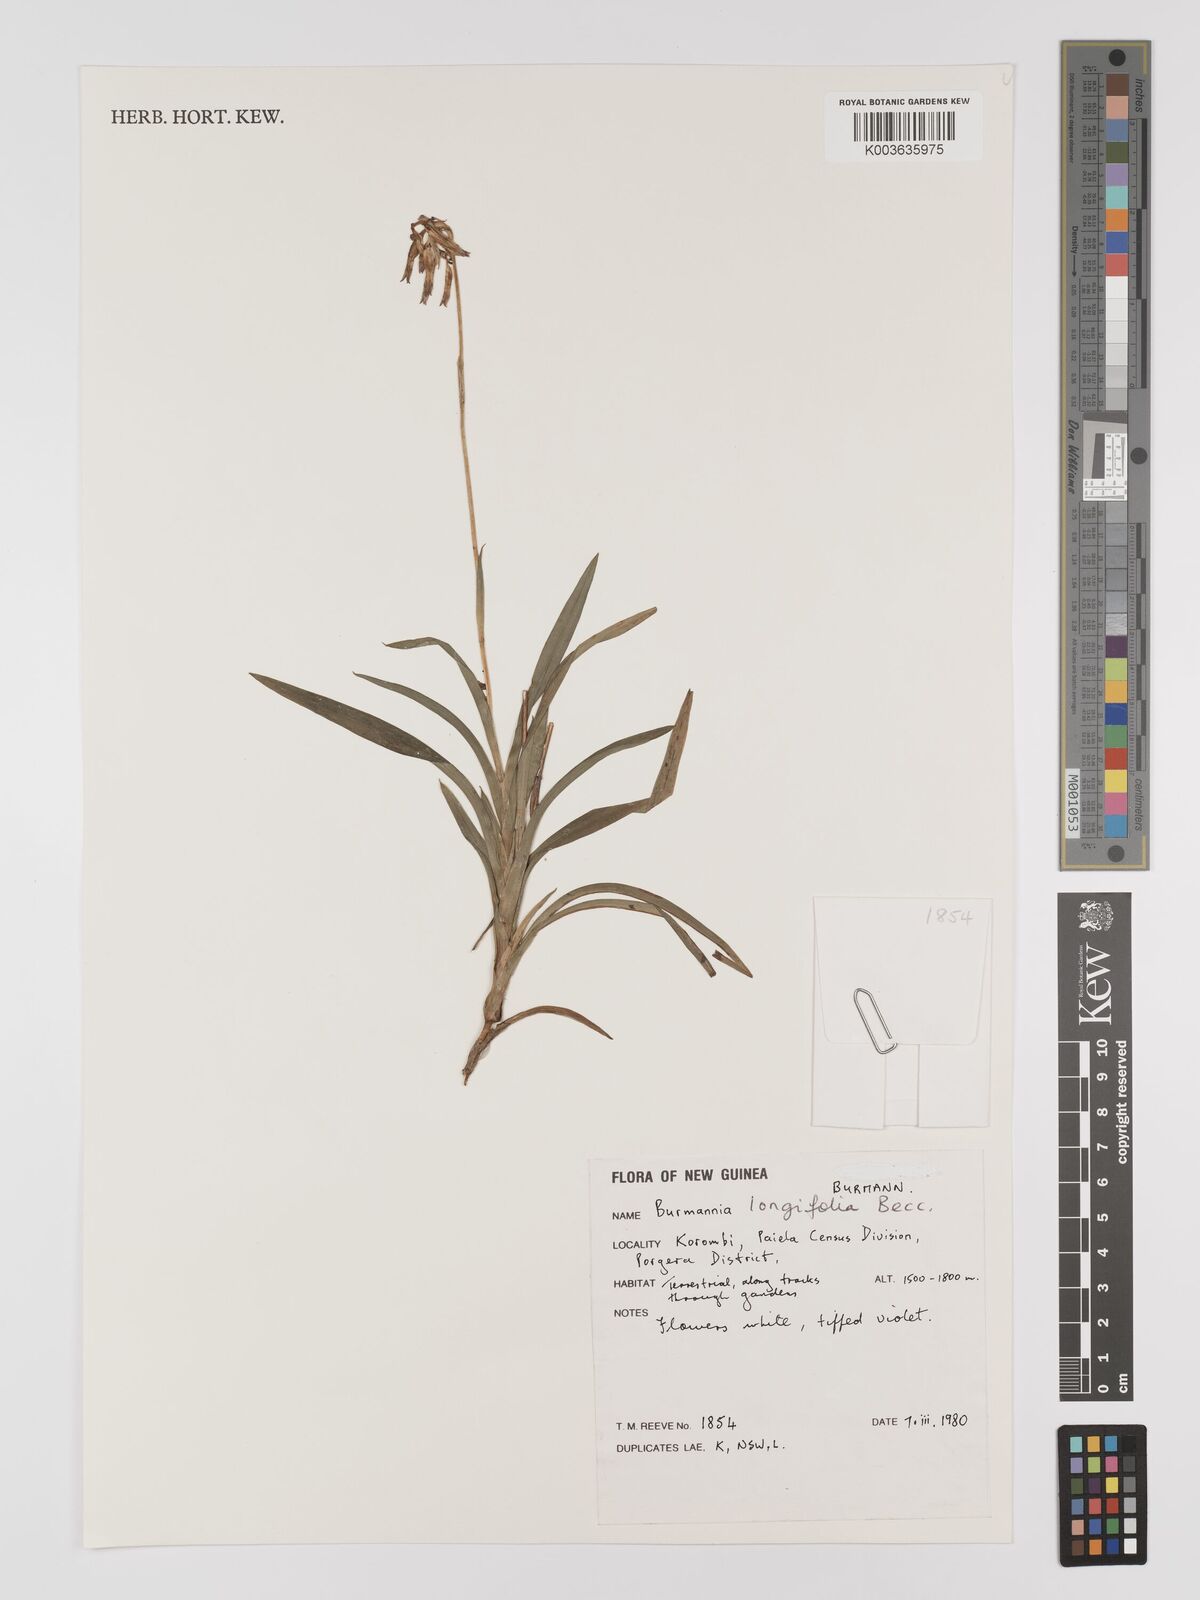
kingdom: Plantae
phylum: Tracheophyta
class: Liliopsida
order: Dioscoreales
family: Burmanniaceae
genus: Burmannia
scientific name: Burmannia longifolia
